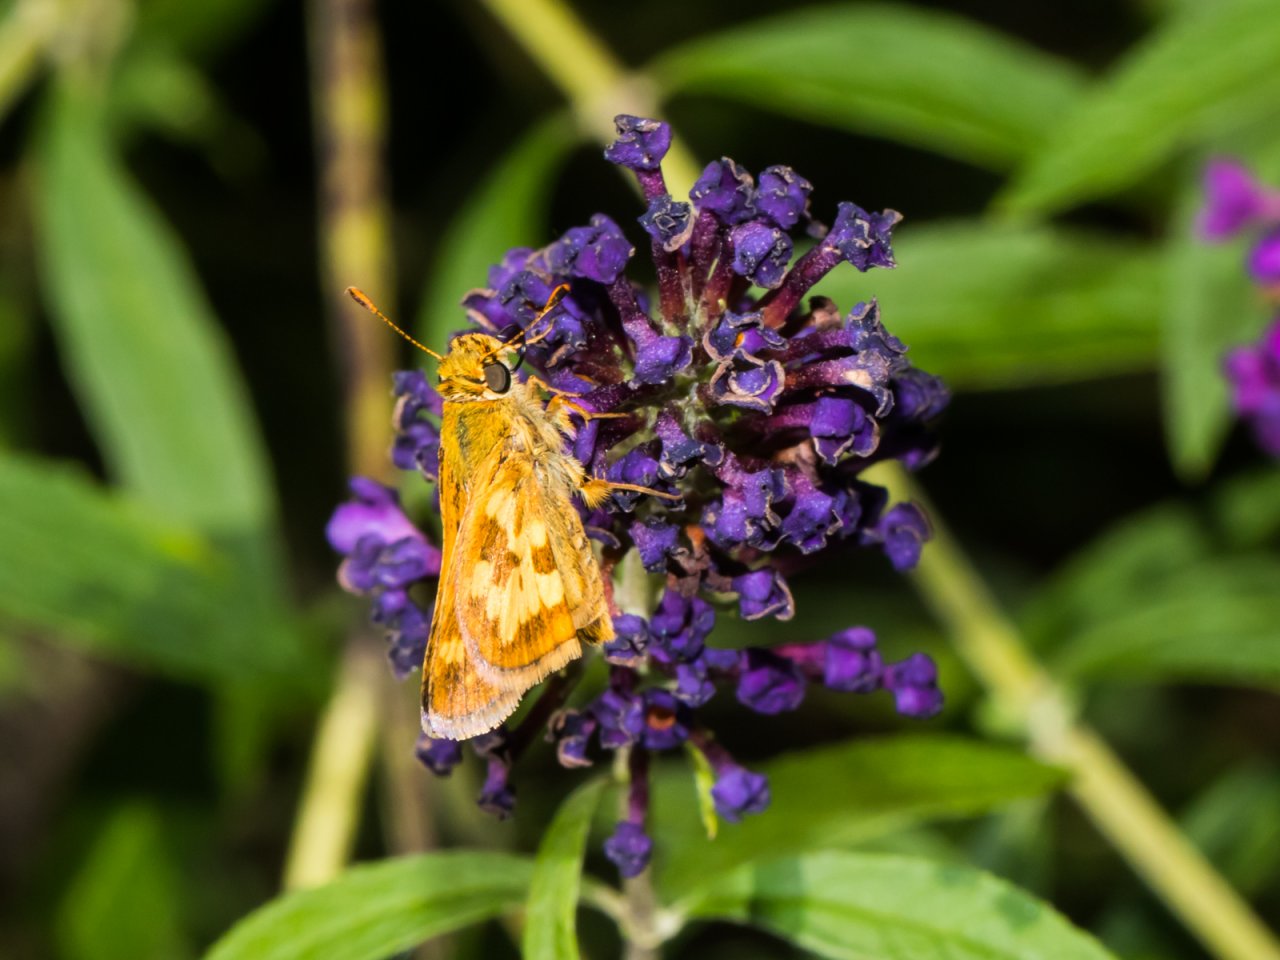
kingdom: Animalia
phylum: Arthropoda
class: Insecta
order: Lepidoptera
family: Hesperiidae
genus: Polites
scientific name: Polites coras
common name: Peck's Skipper
